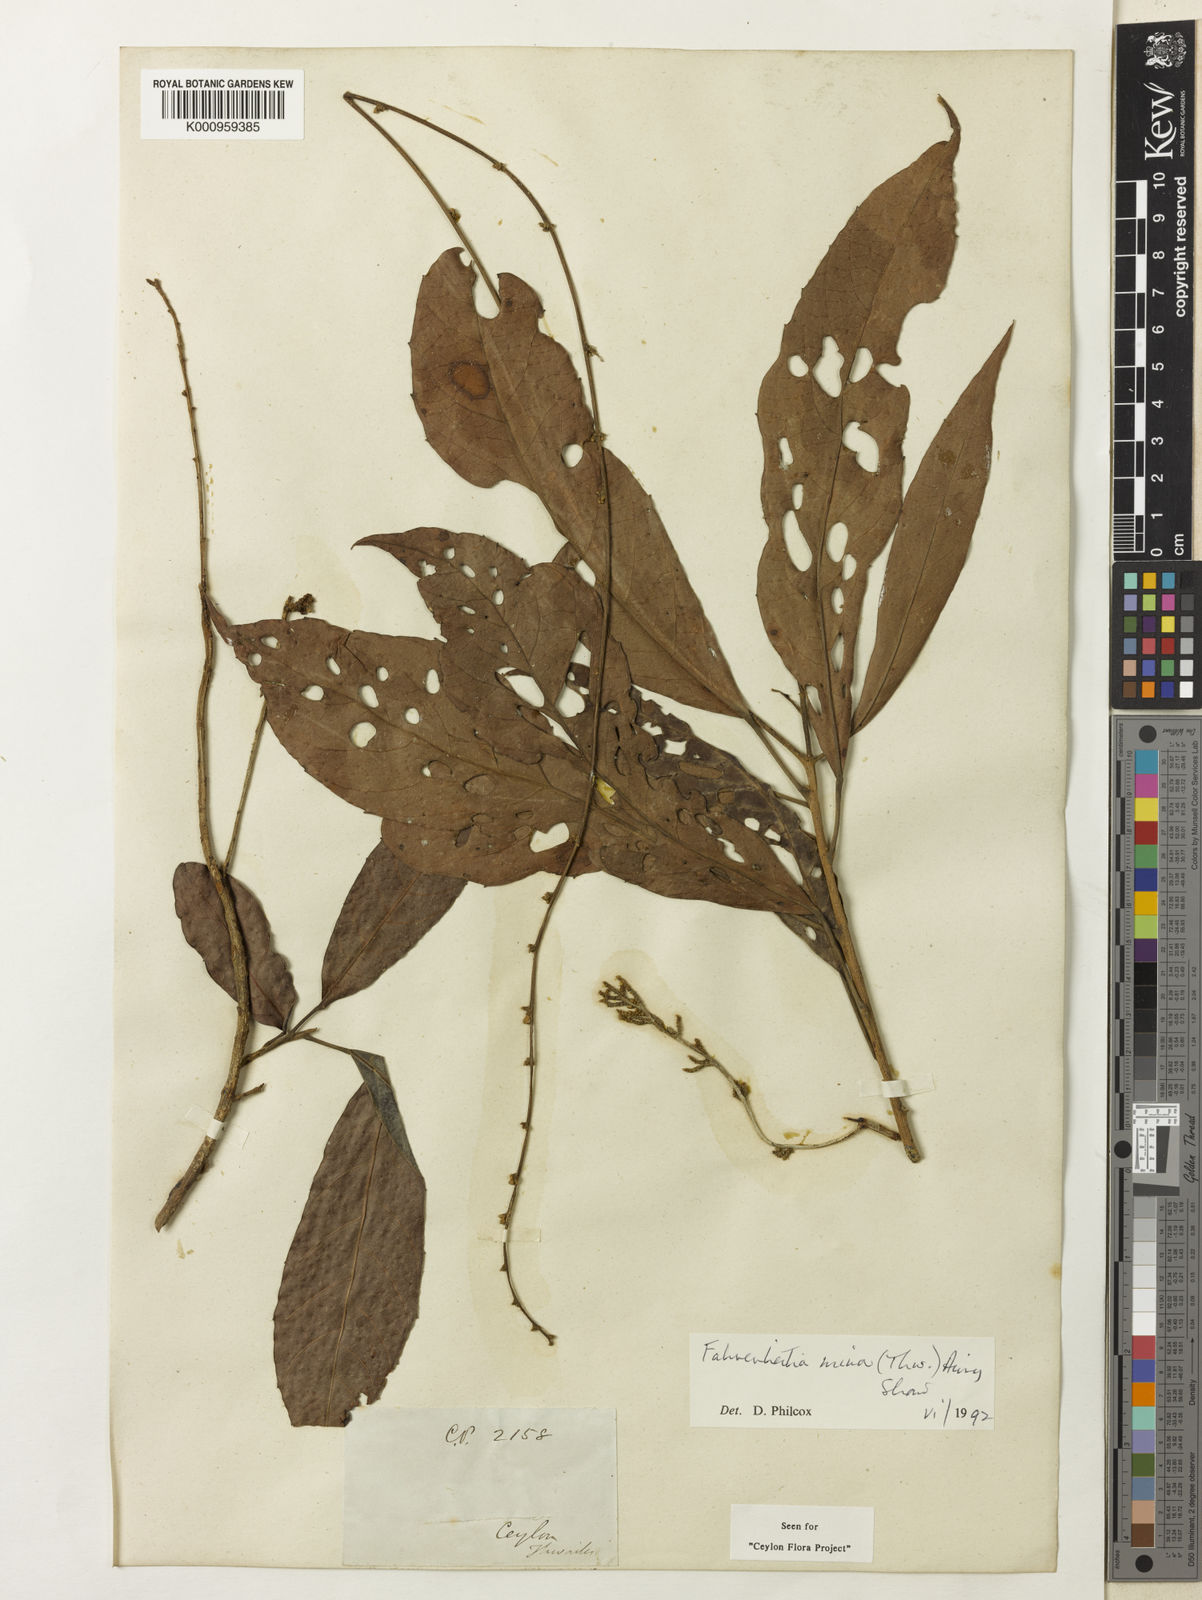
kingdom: Plantae
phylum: Tracheophyta
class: Magnoliopsida
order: Malpighiales
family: Euphorbiaceae
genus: Paracroton
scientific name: Paracroton
